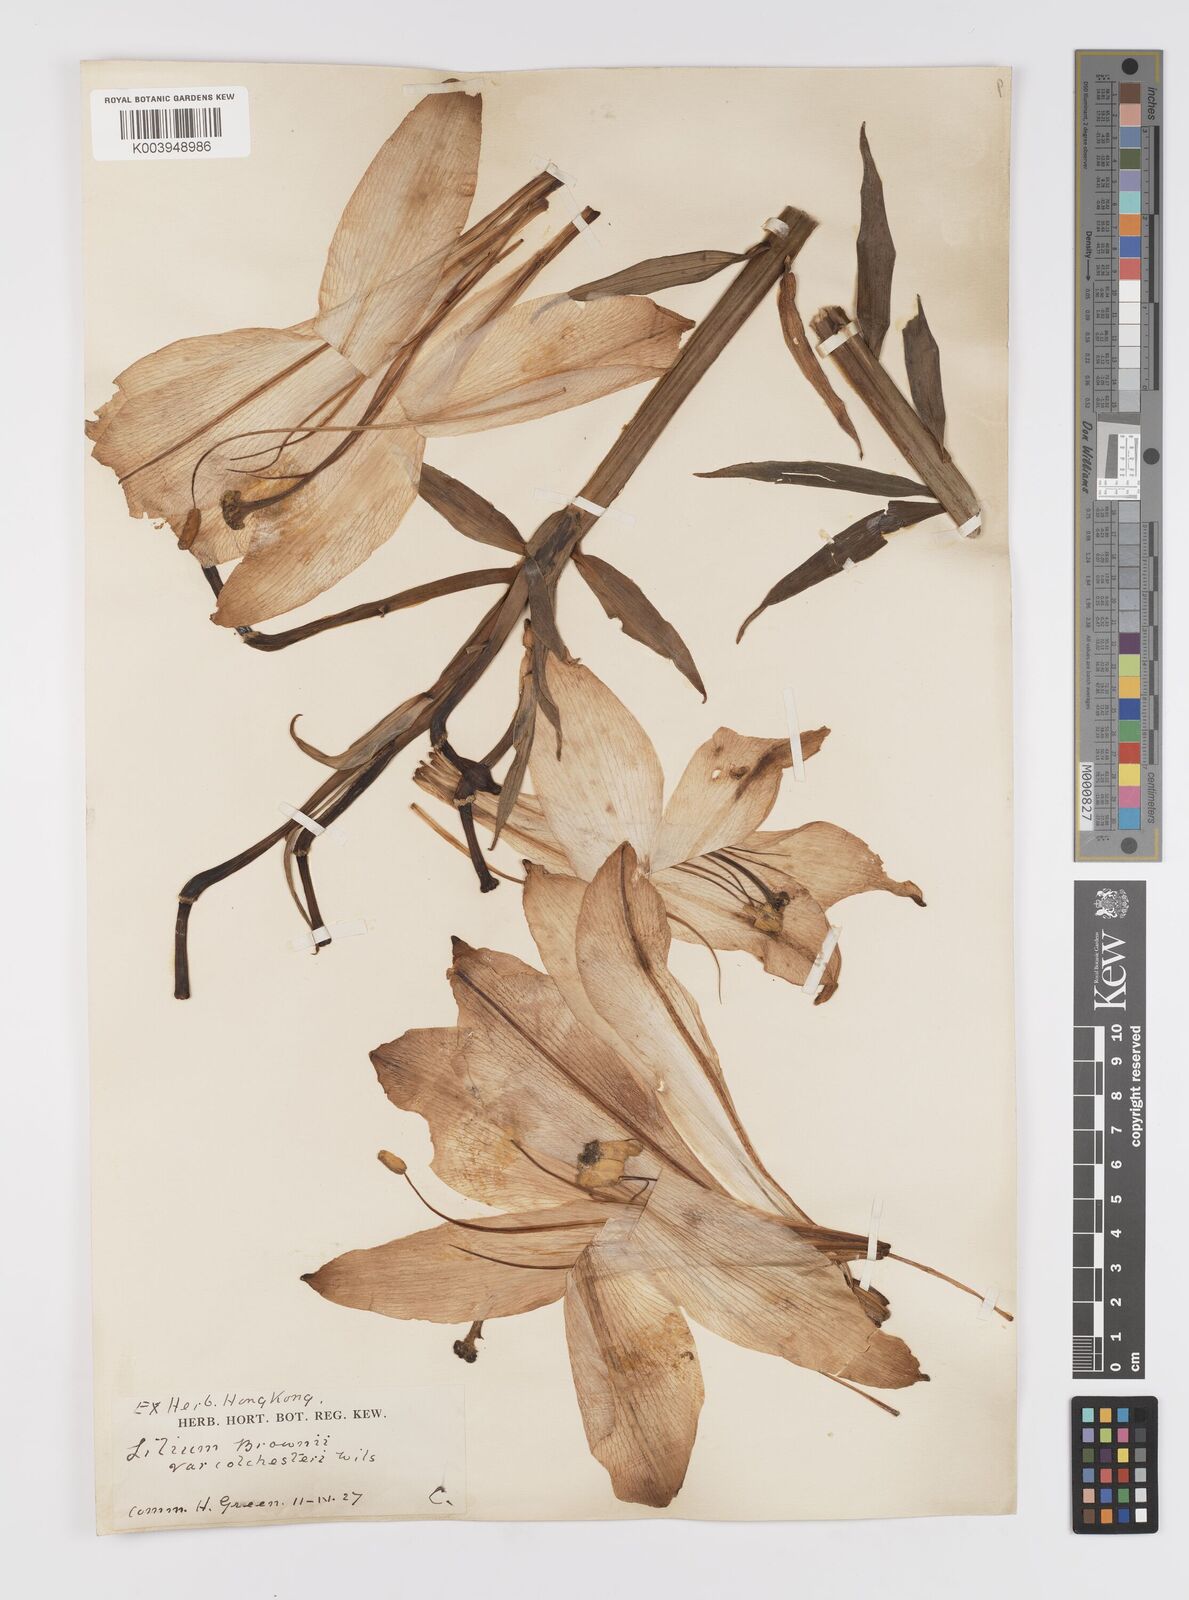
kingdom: Plantae
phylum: Tracheophyta
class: Liliopsida
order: Liliales
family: Liliaceae
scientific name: Liliaceae
